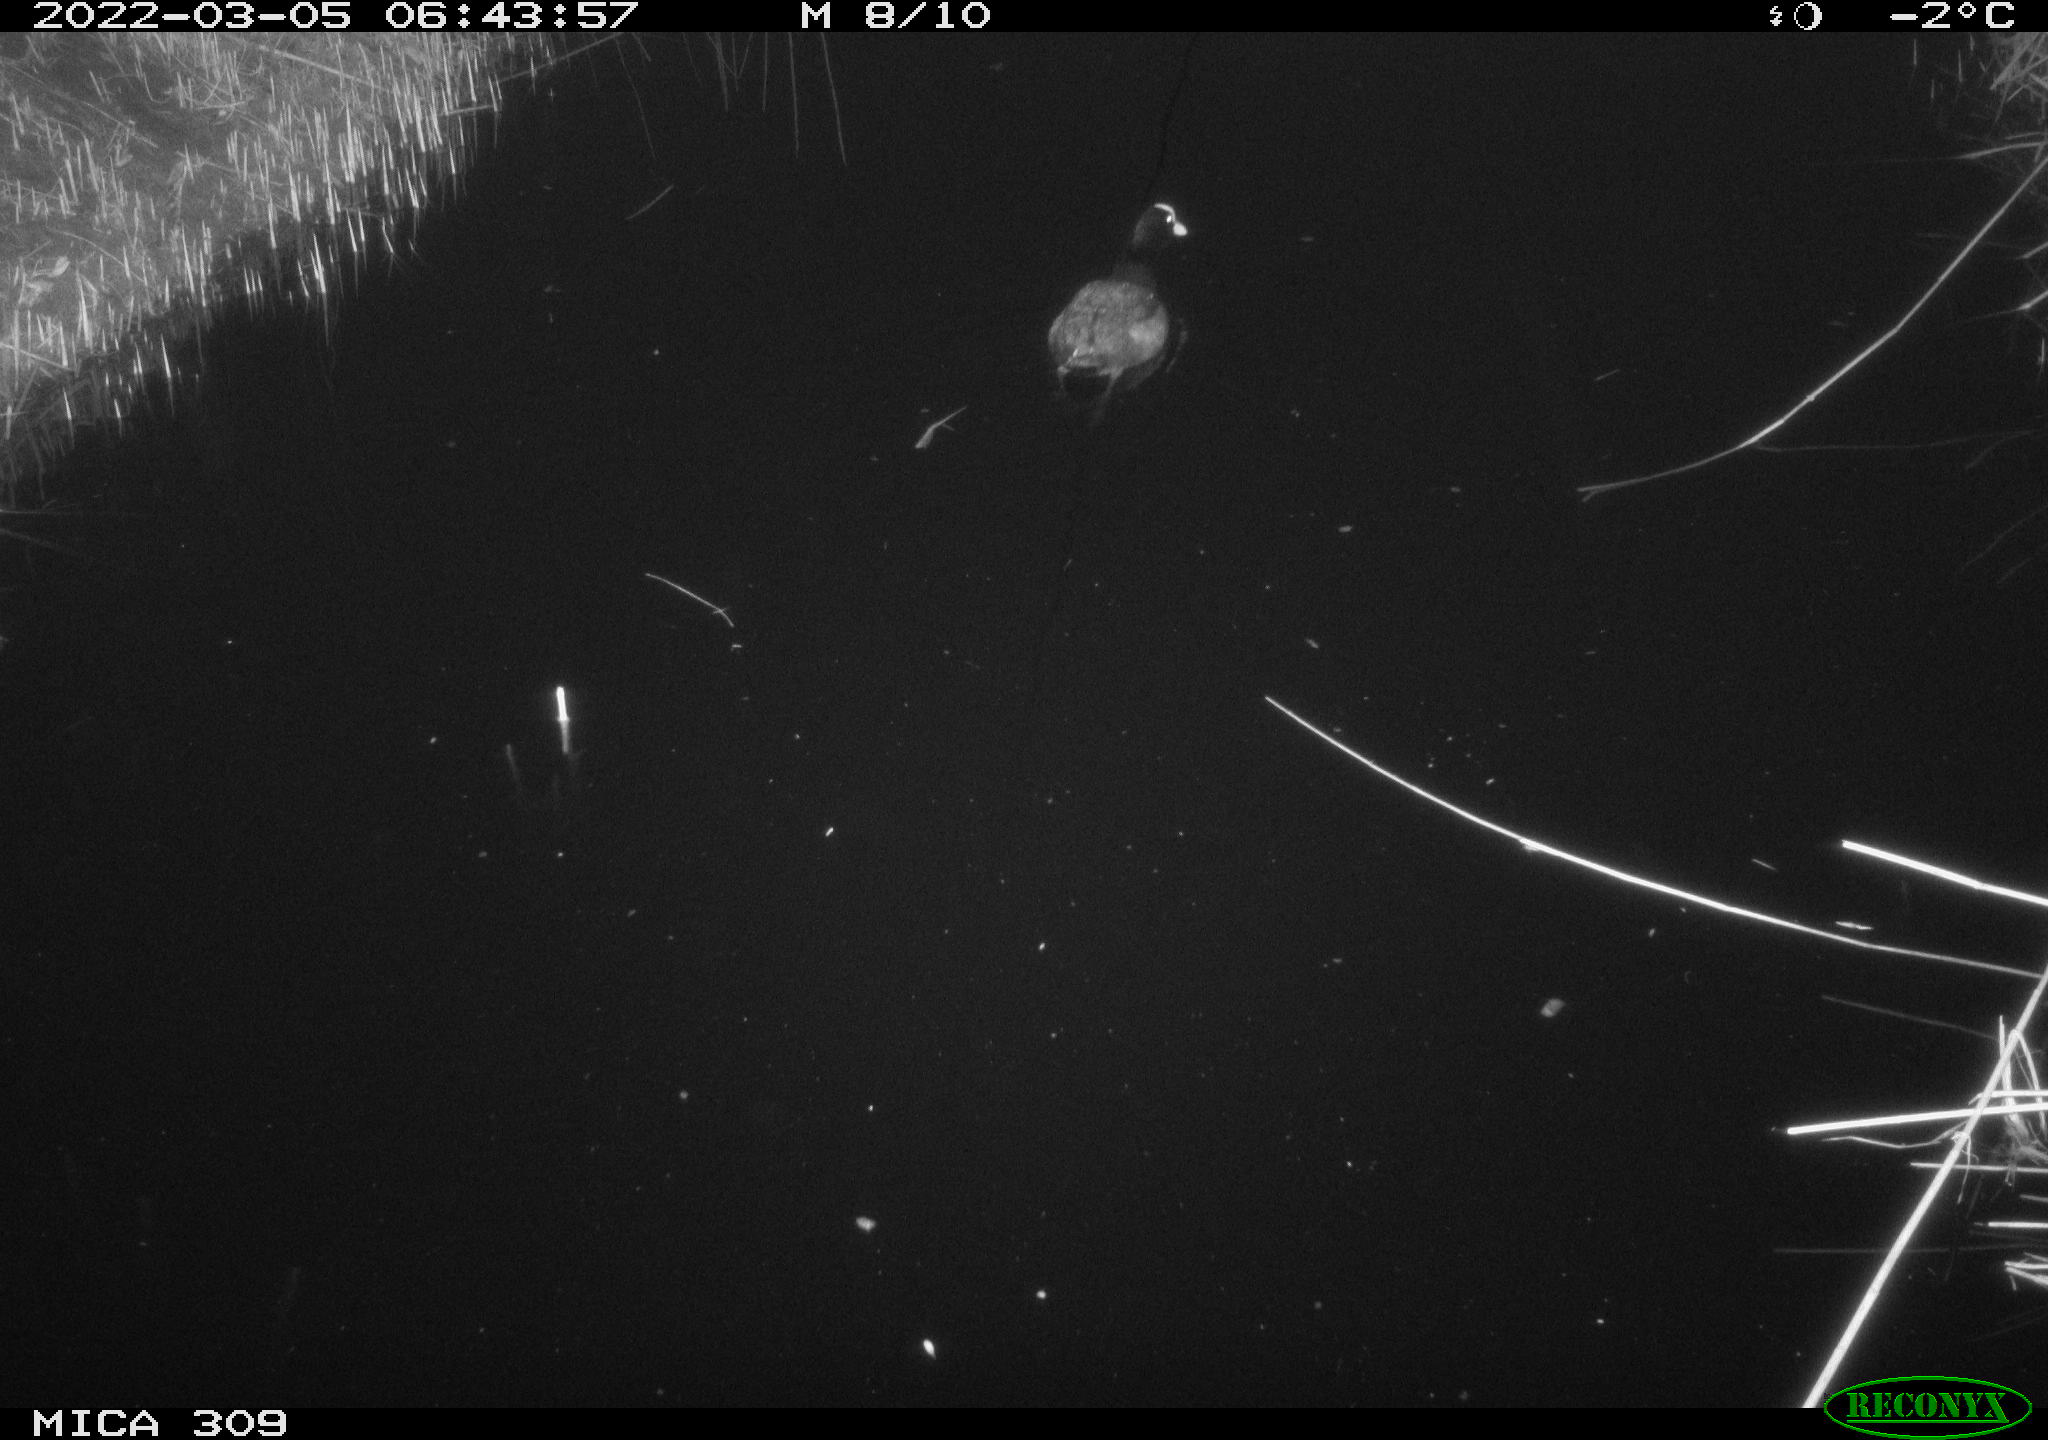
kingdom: Animalia
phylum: Chordata
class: Aves
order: Gruiformes
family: Rallidae
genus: Fulica
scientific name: Fulica atra
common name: Eurasian coot
